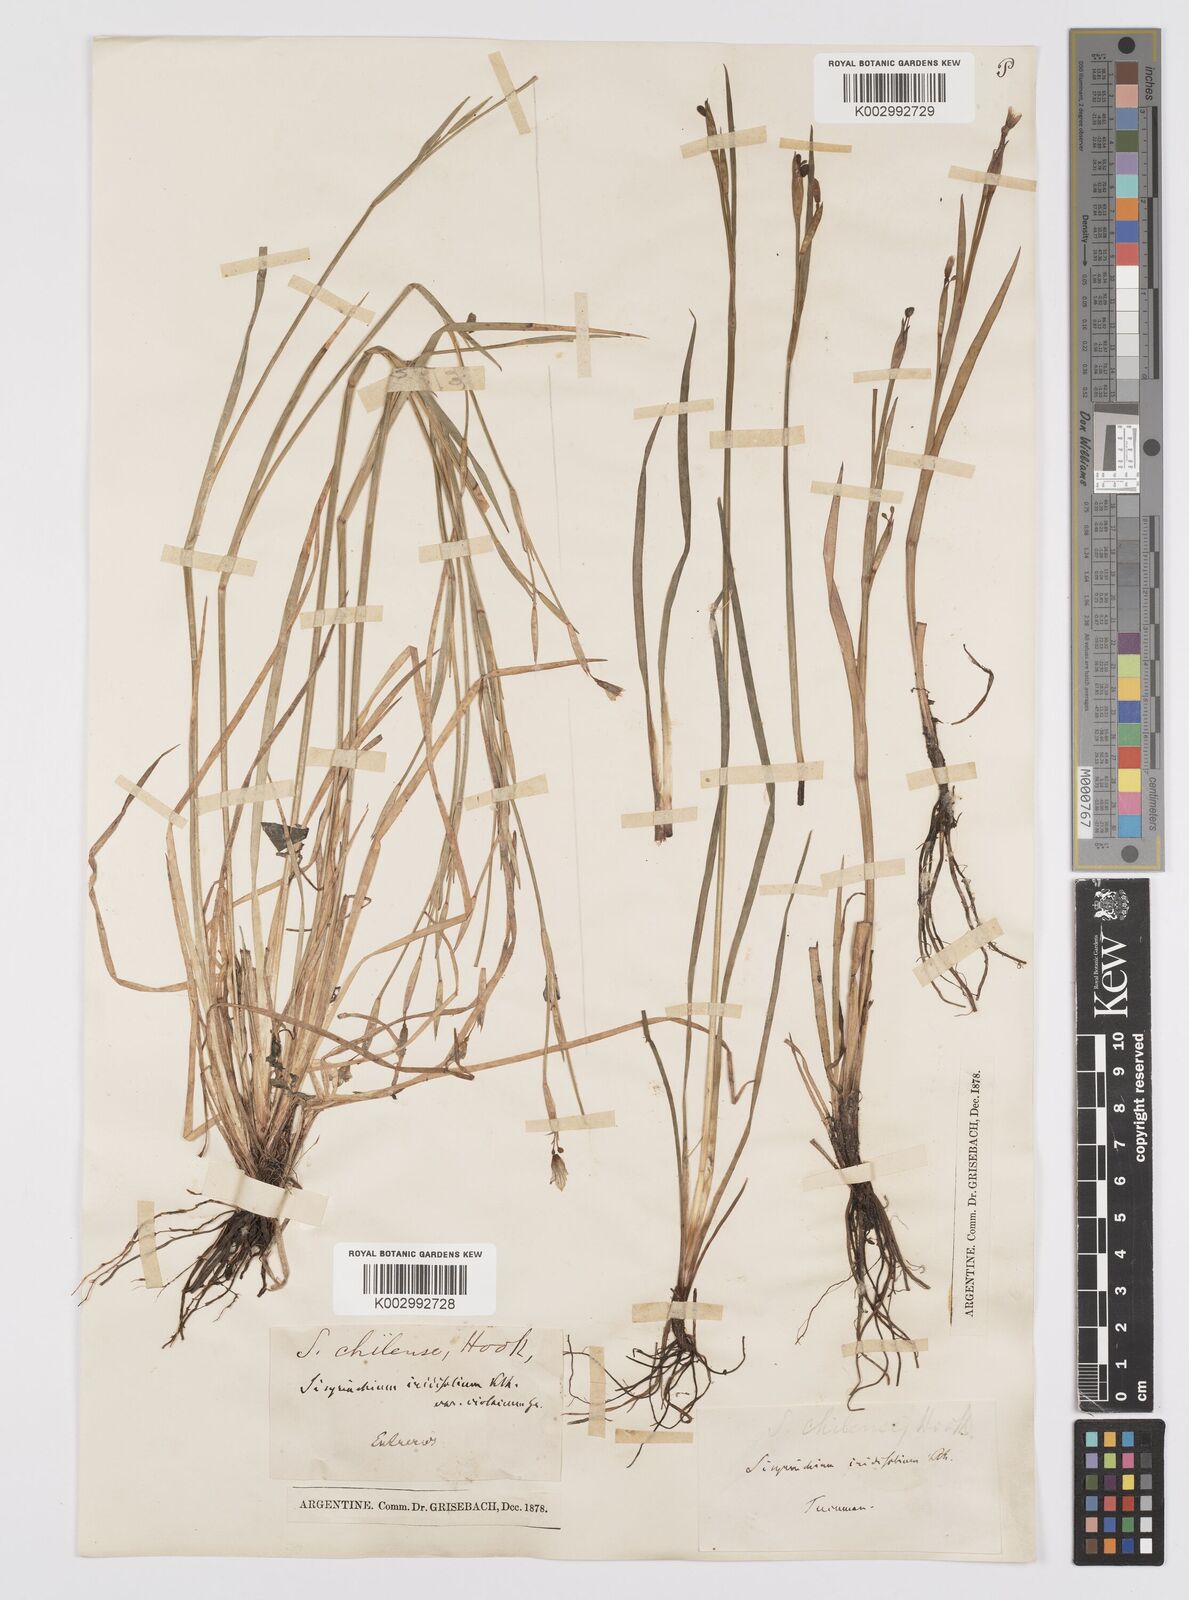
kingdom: Plantae
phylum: Tracheophyta
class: Liliopsida
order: Asparagales
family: Iridaceae
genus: Sisyrinchium
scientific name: Sisyrinchium chilense
